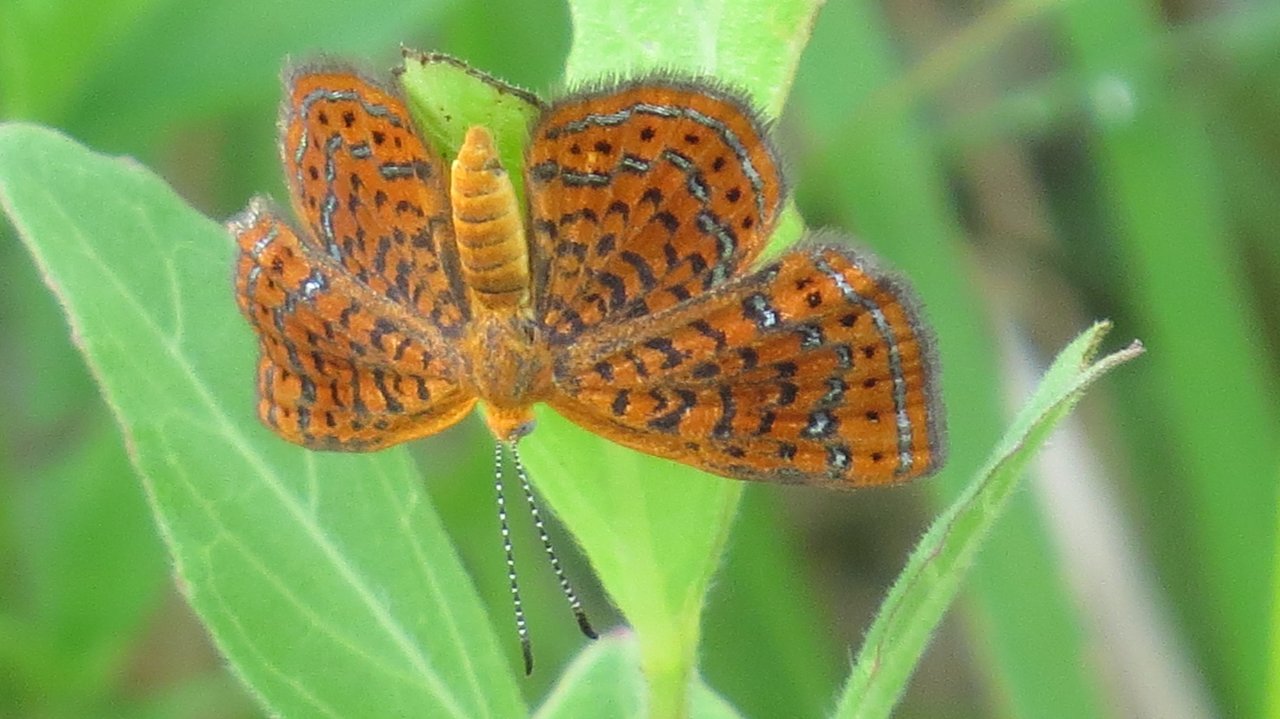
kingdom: Animalia
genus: Calephelis
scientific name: Calephelis virginiensis
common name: Little Metalmark
